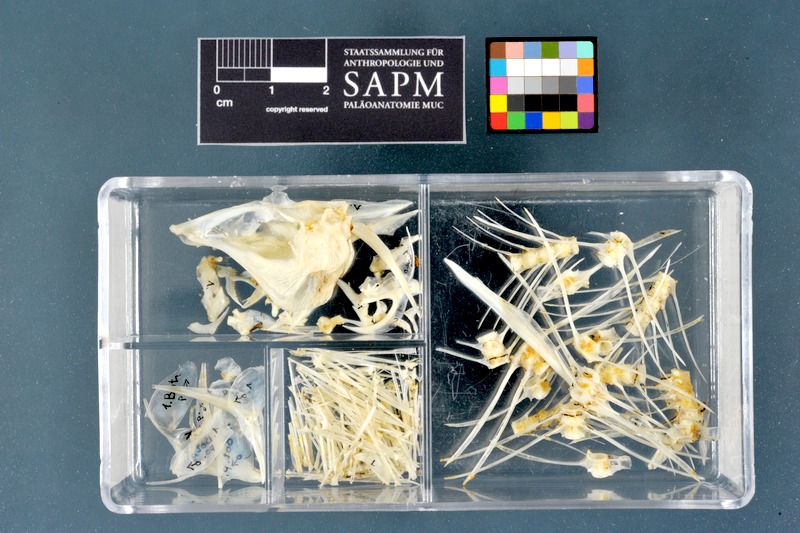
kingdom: Animalia
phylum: Chordata
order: Pleuronectiformes
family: Bothidae
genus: Bothus
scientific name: Bothus podas
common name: Wide-eyed flounder
